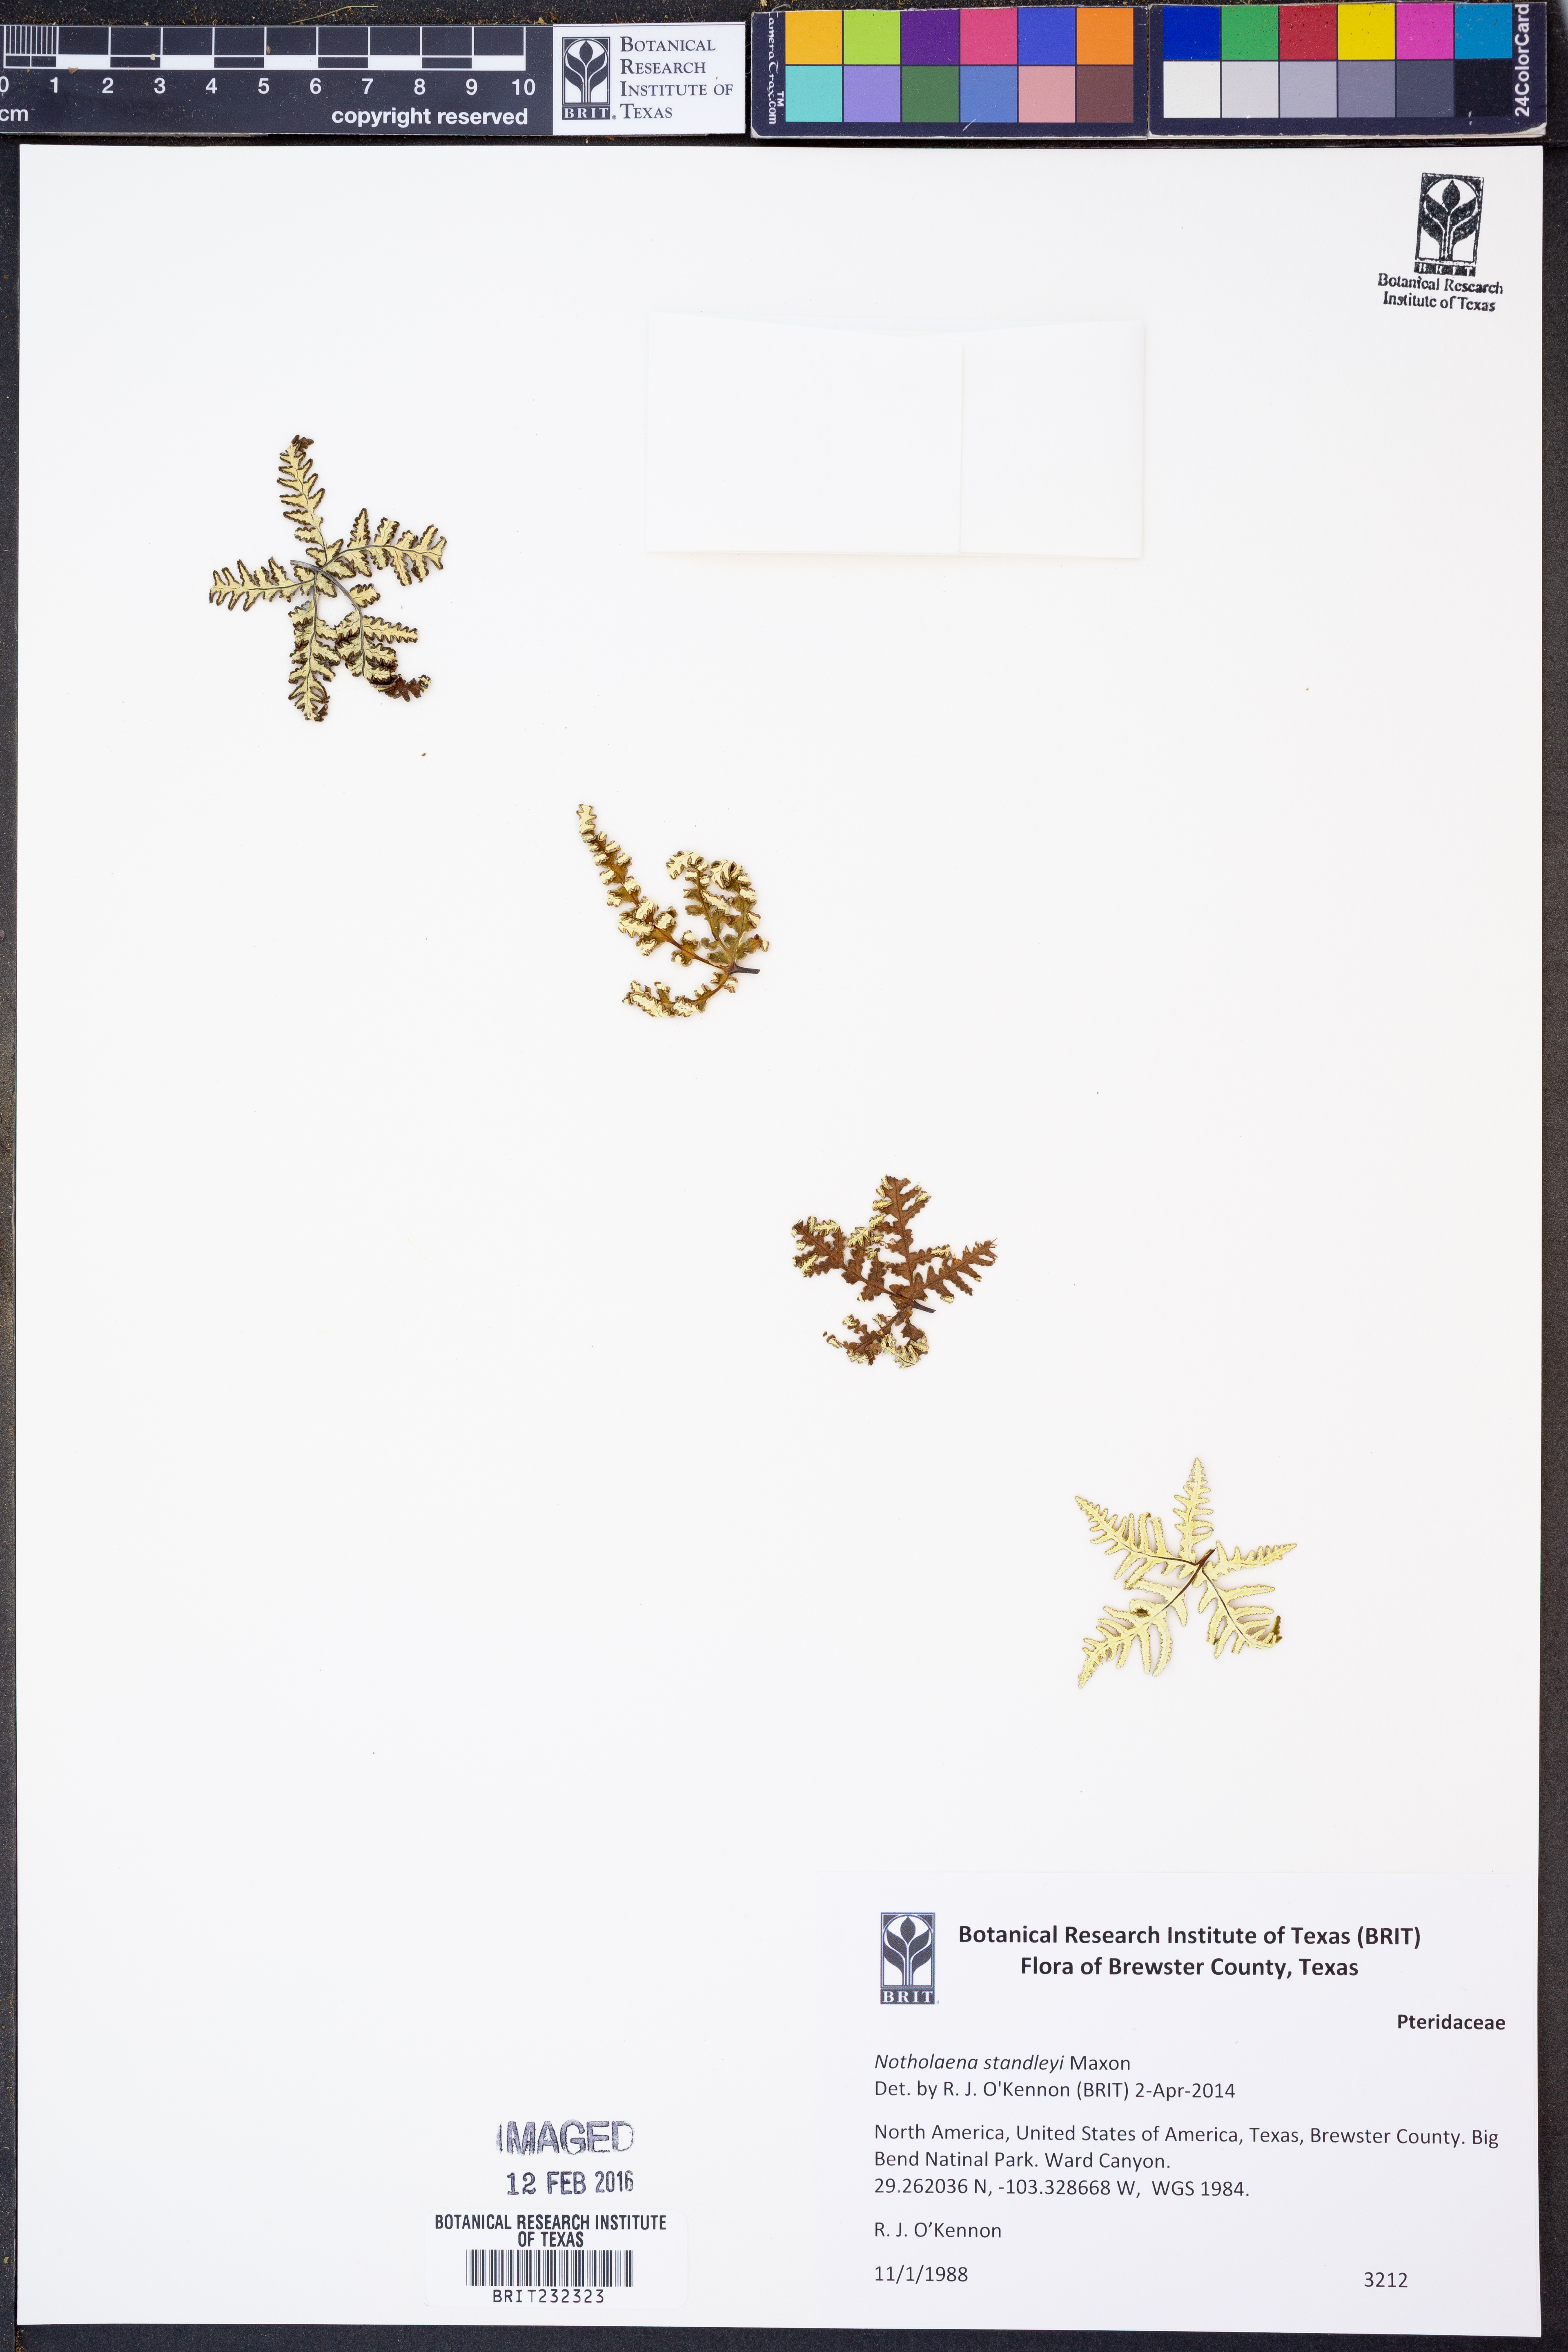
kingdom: Plantae
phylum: Tracheophyta
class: Polypodiopsida
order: Polypodiales
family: Pteridaceae
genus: Notholaena
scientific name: Notholaena standleyi
